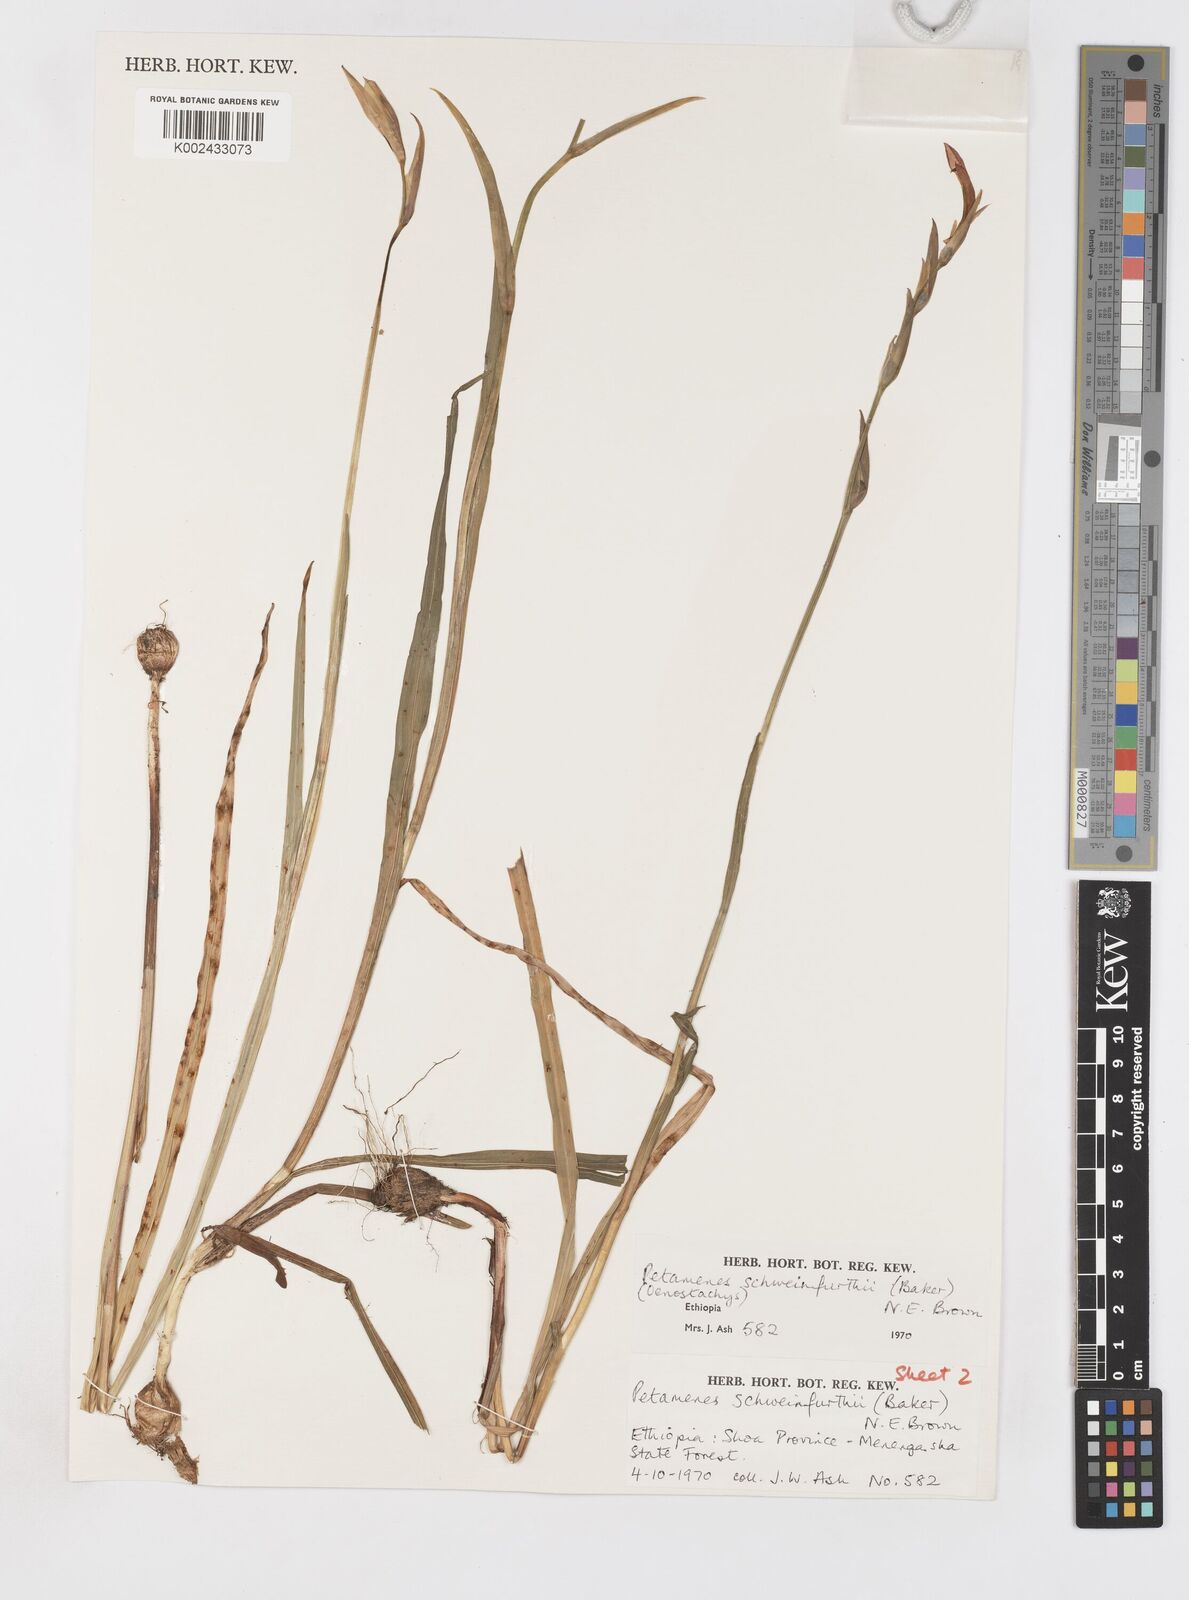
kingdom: Plantae
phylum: Tracheophyta
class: Liliopsida
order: Asparagales
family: Iridaceae
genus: Gladiolus
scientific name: Gladiolus schweinfurthii
